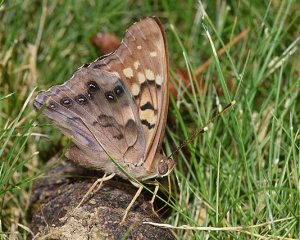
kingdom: Animalia
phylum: Arthropoda
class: Insecta
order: Lepidoptera
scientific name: Lepidoptera
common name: Butterflies
